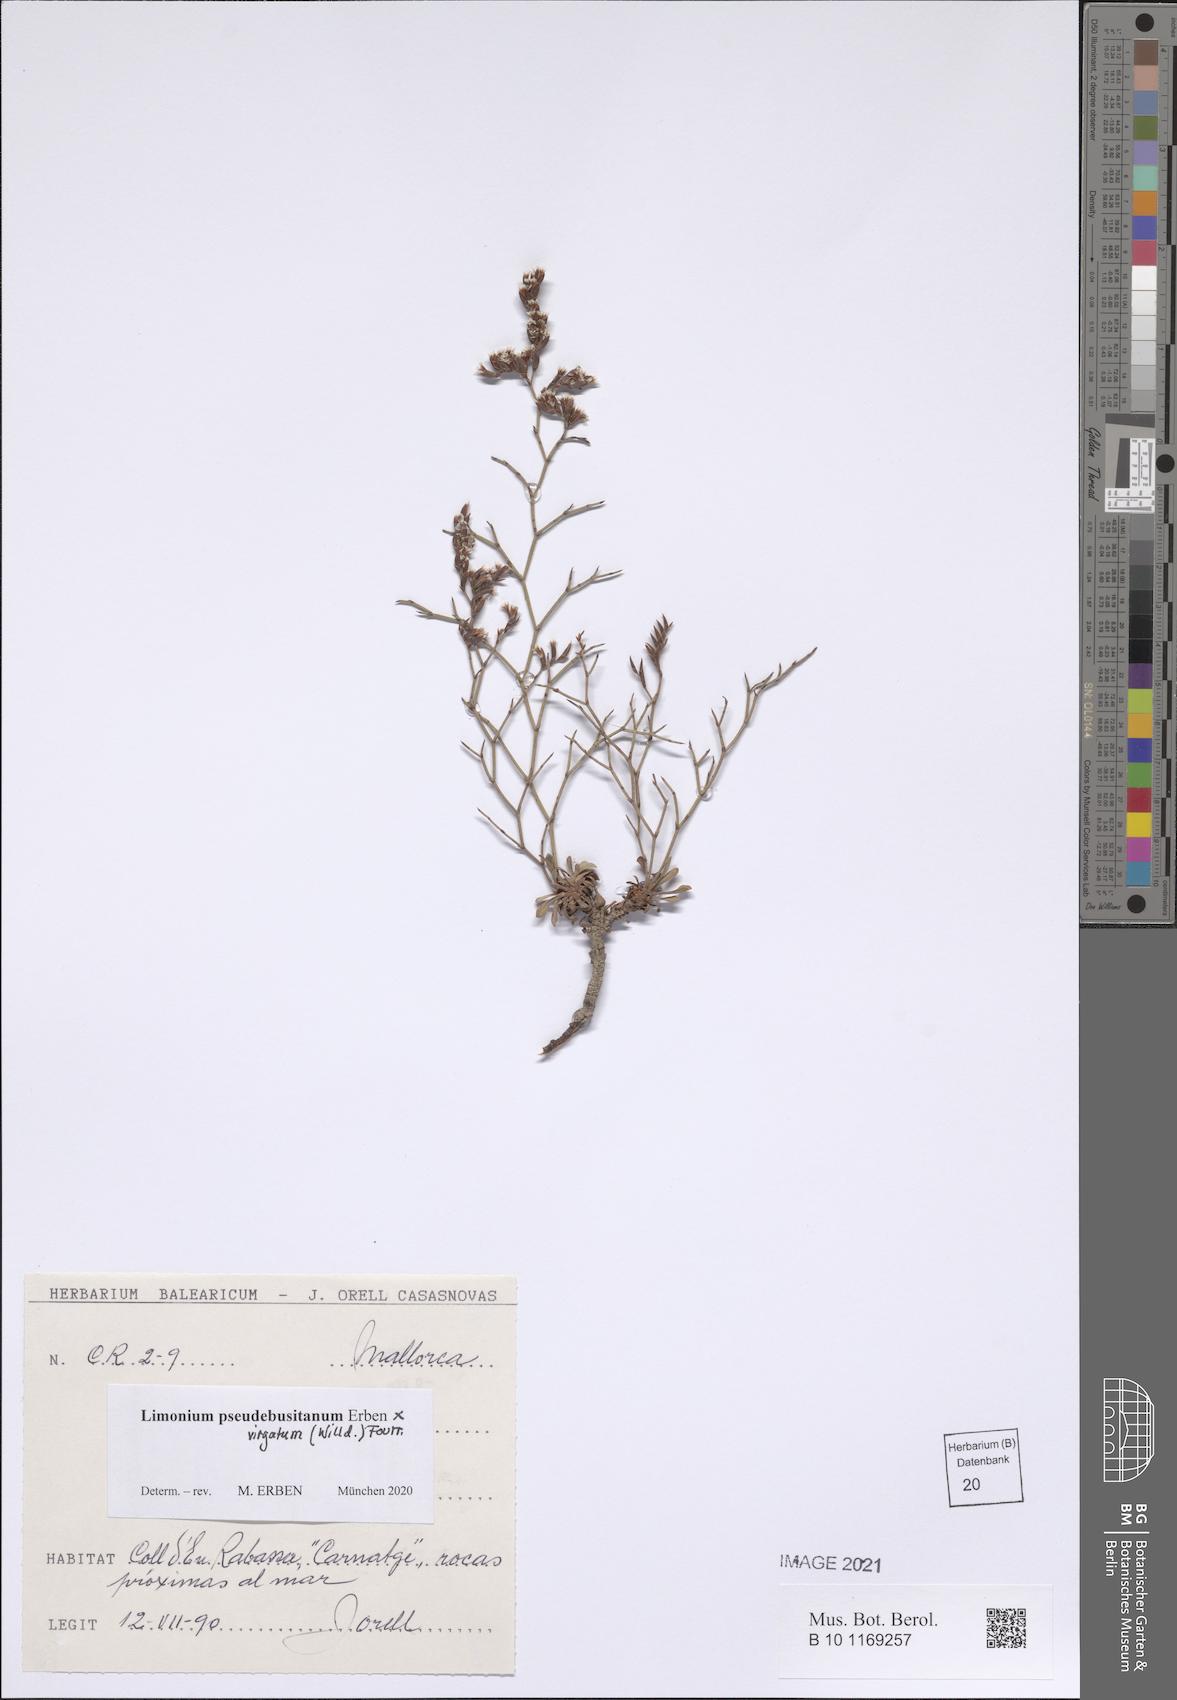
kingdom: Plantae
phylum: Tracheophyta
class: Magnoliopsida
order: Caryophyllales
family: Plumbaginaceae
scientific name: Plumbaginaceae
